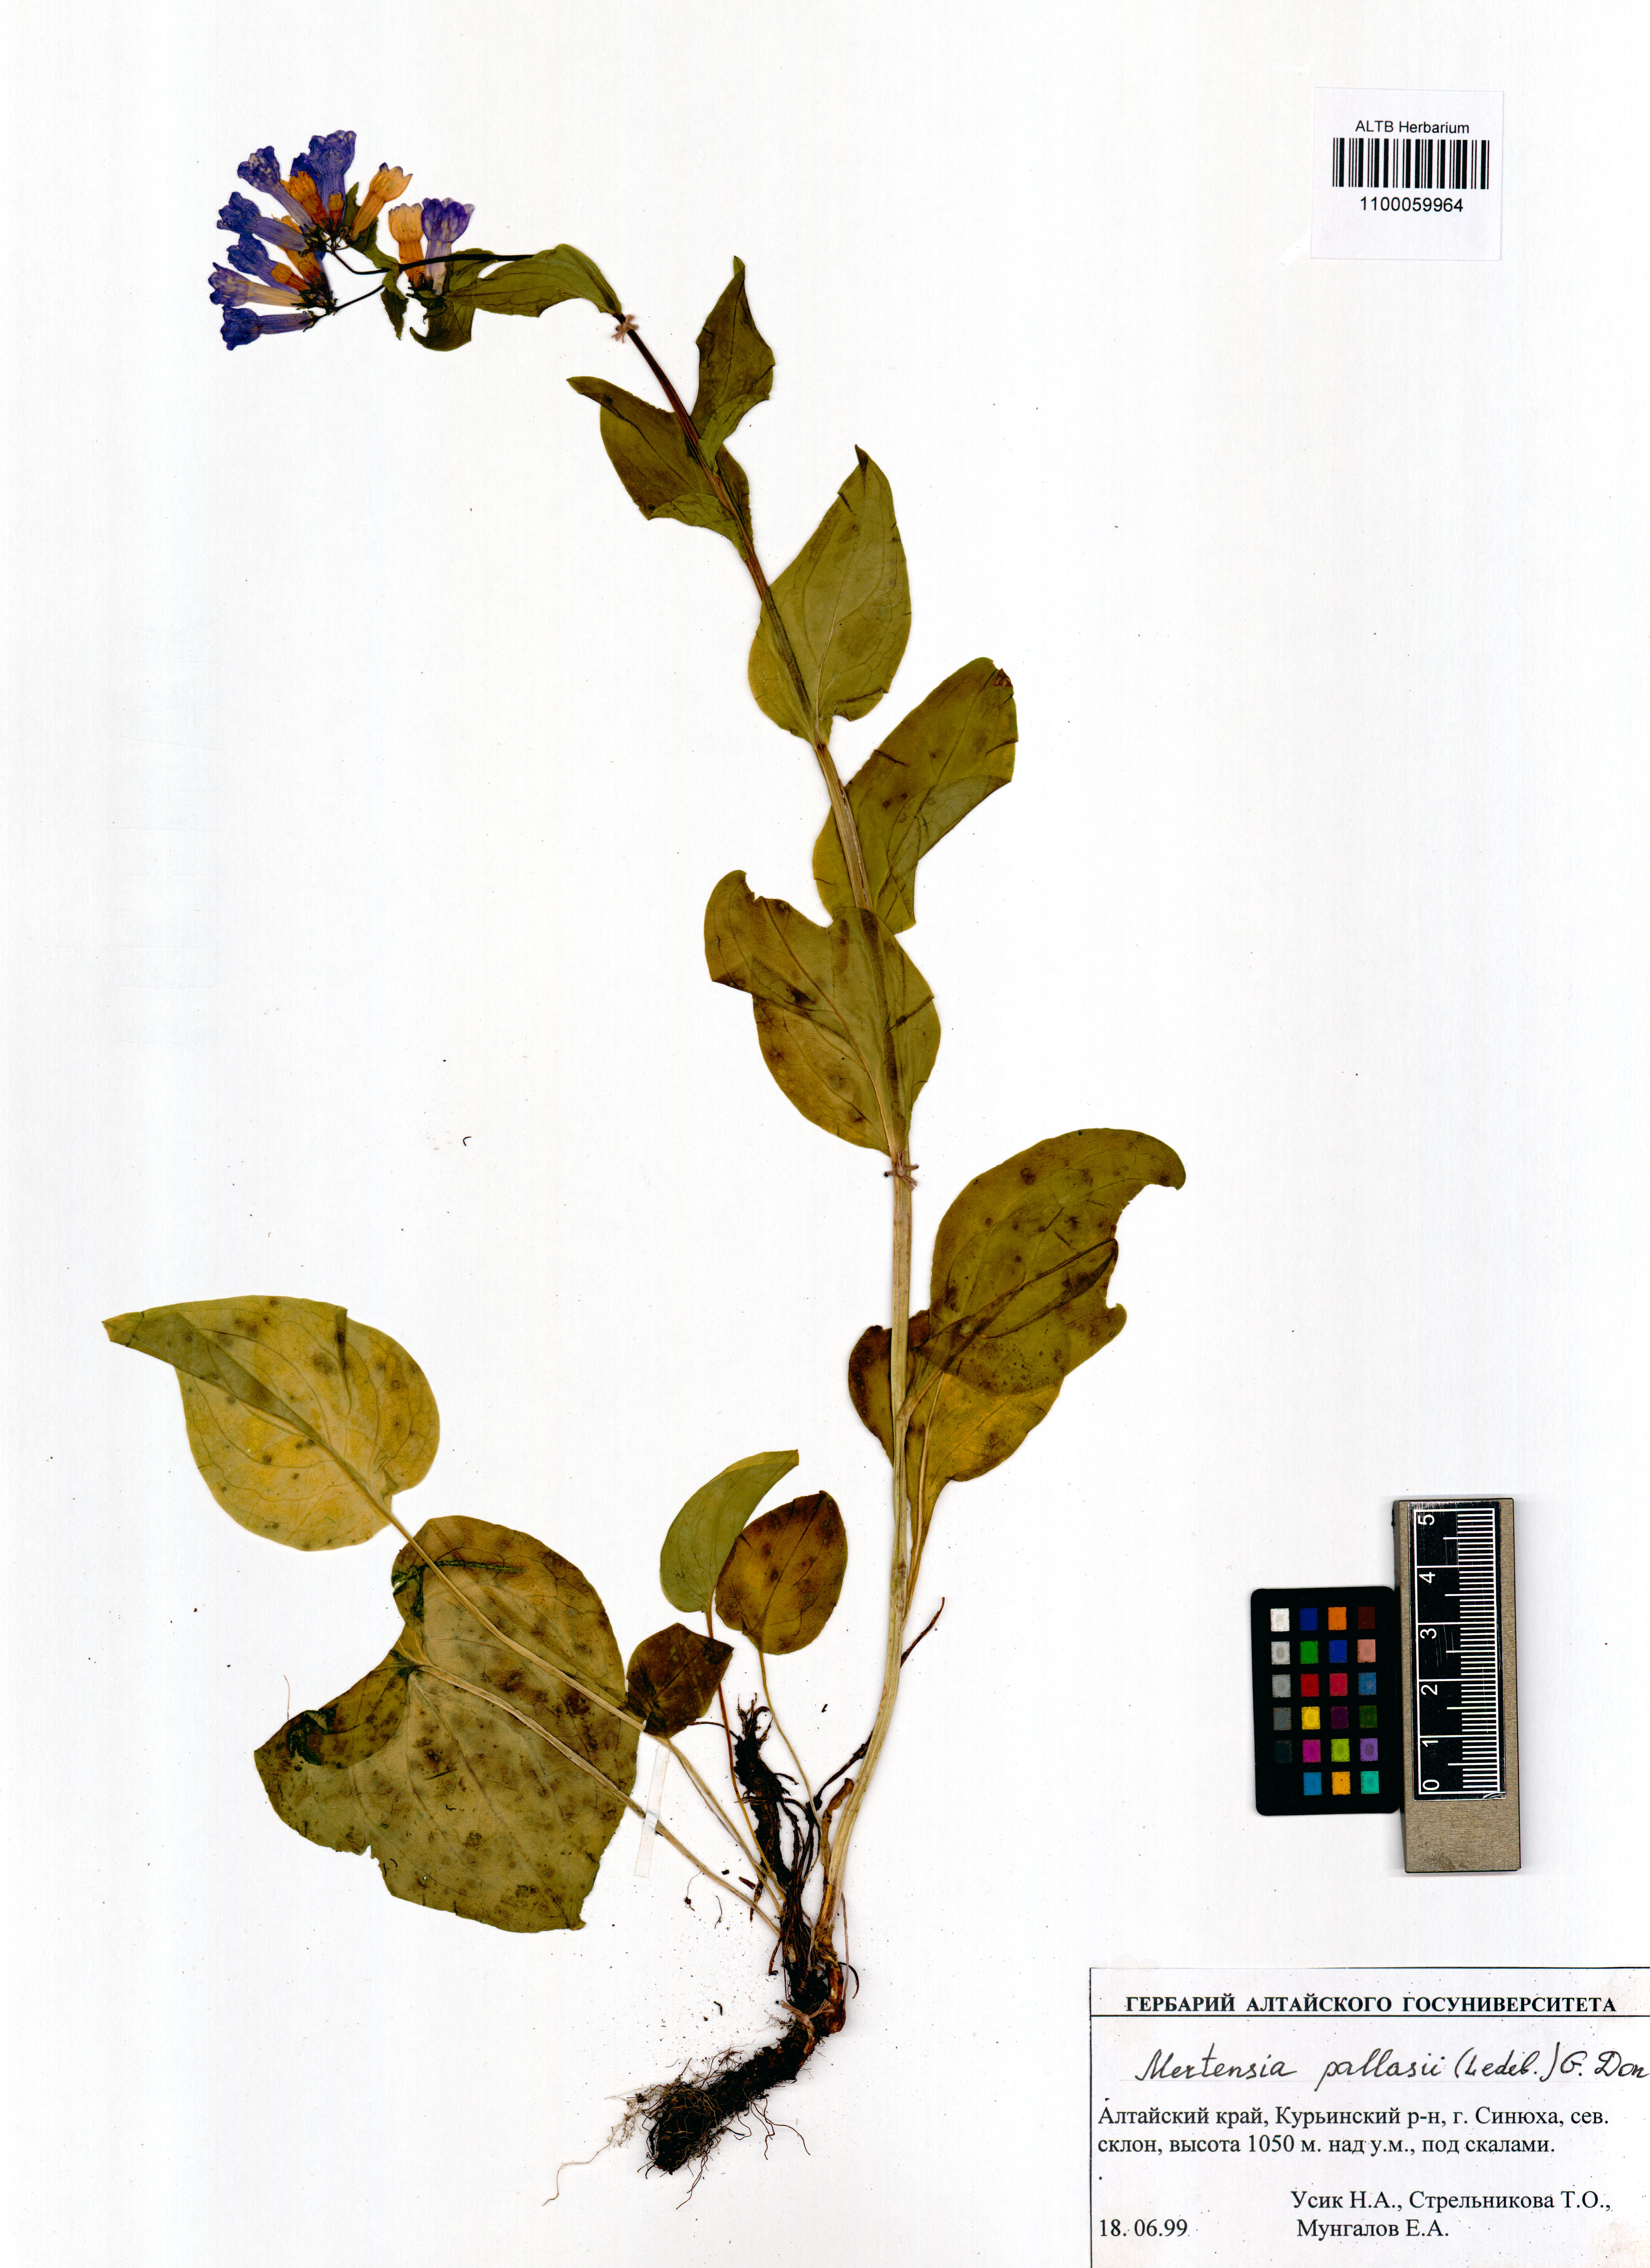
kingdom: Plantae
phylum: Tracheophyta
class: Magnoliopsida
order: Boraginales
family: Boraginaceae
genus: Mertensia
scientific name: Mertensia pallasii
